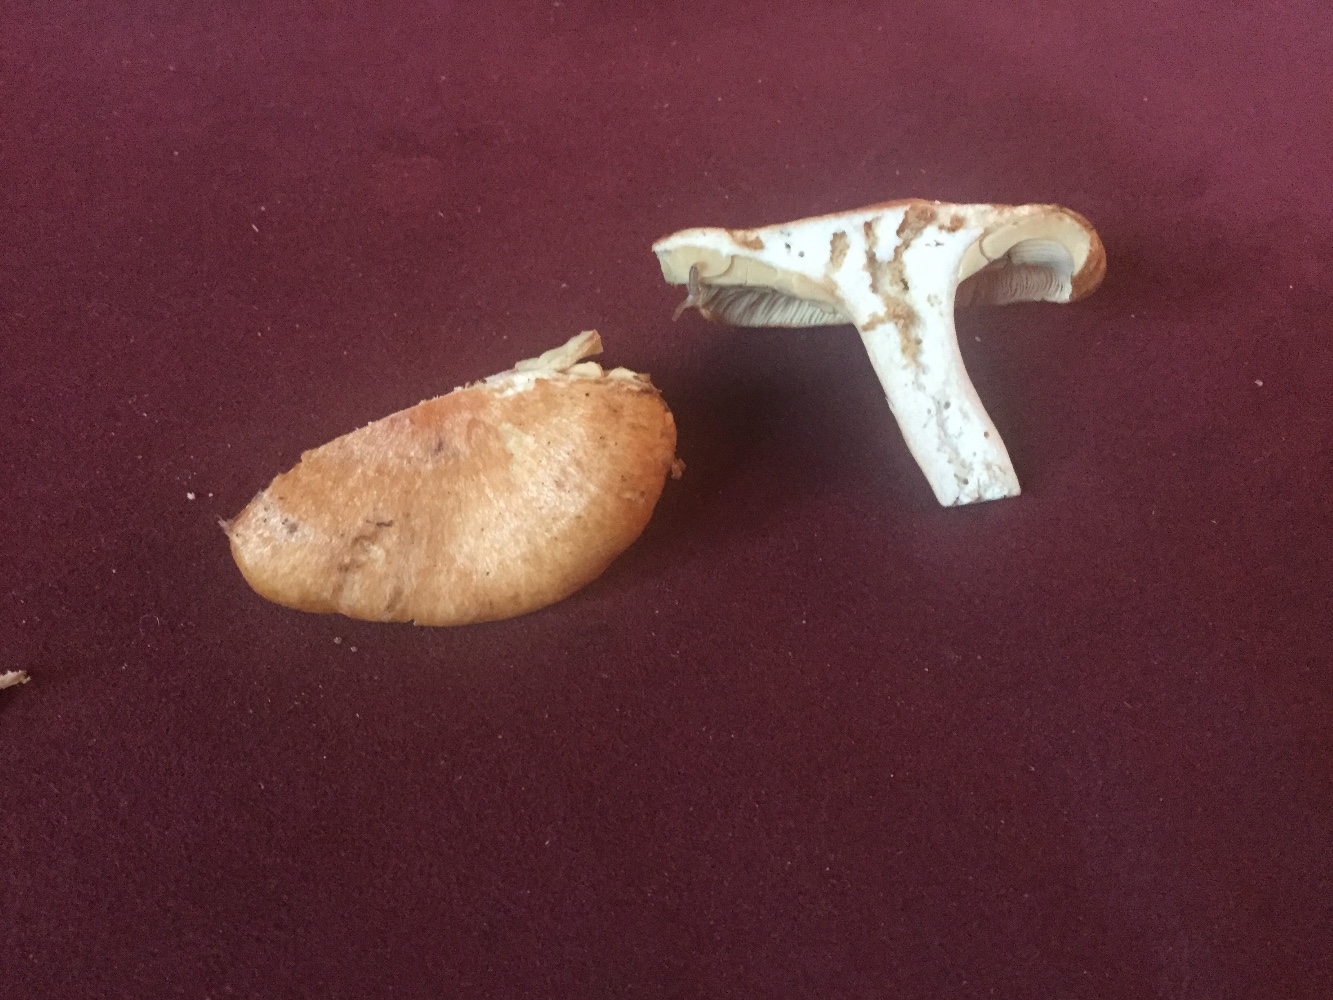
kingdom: Fungi
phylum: Basidiomycota
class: Agaricomycetes
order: Russulales
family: Russulaceae
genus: Lactarius
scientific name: Lactarius porninsis
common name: lærke-mælkehat
